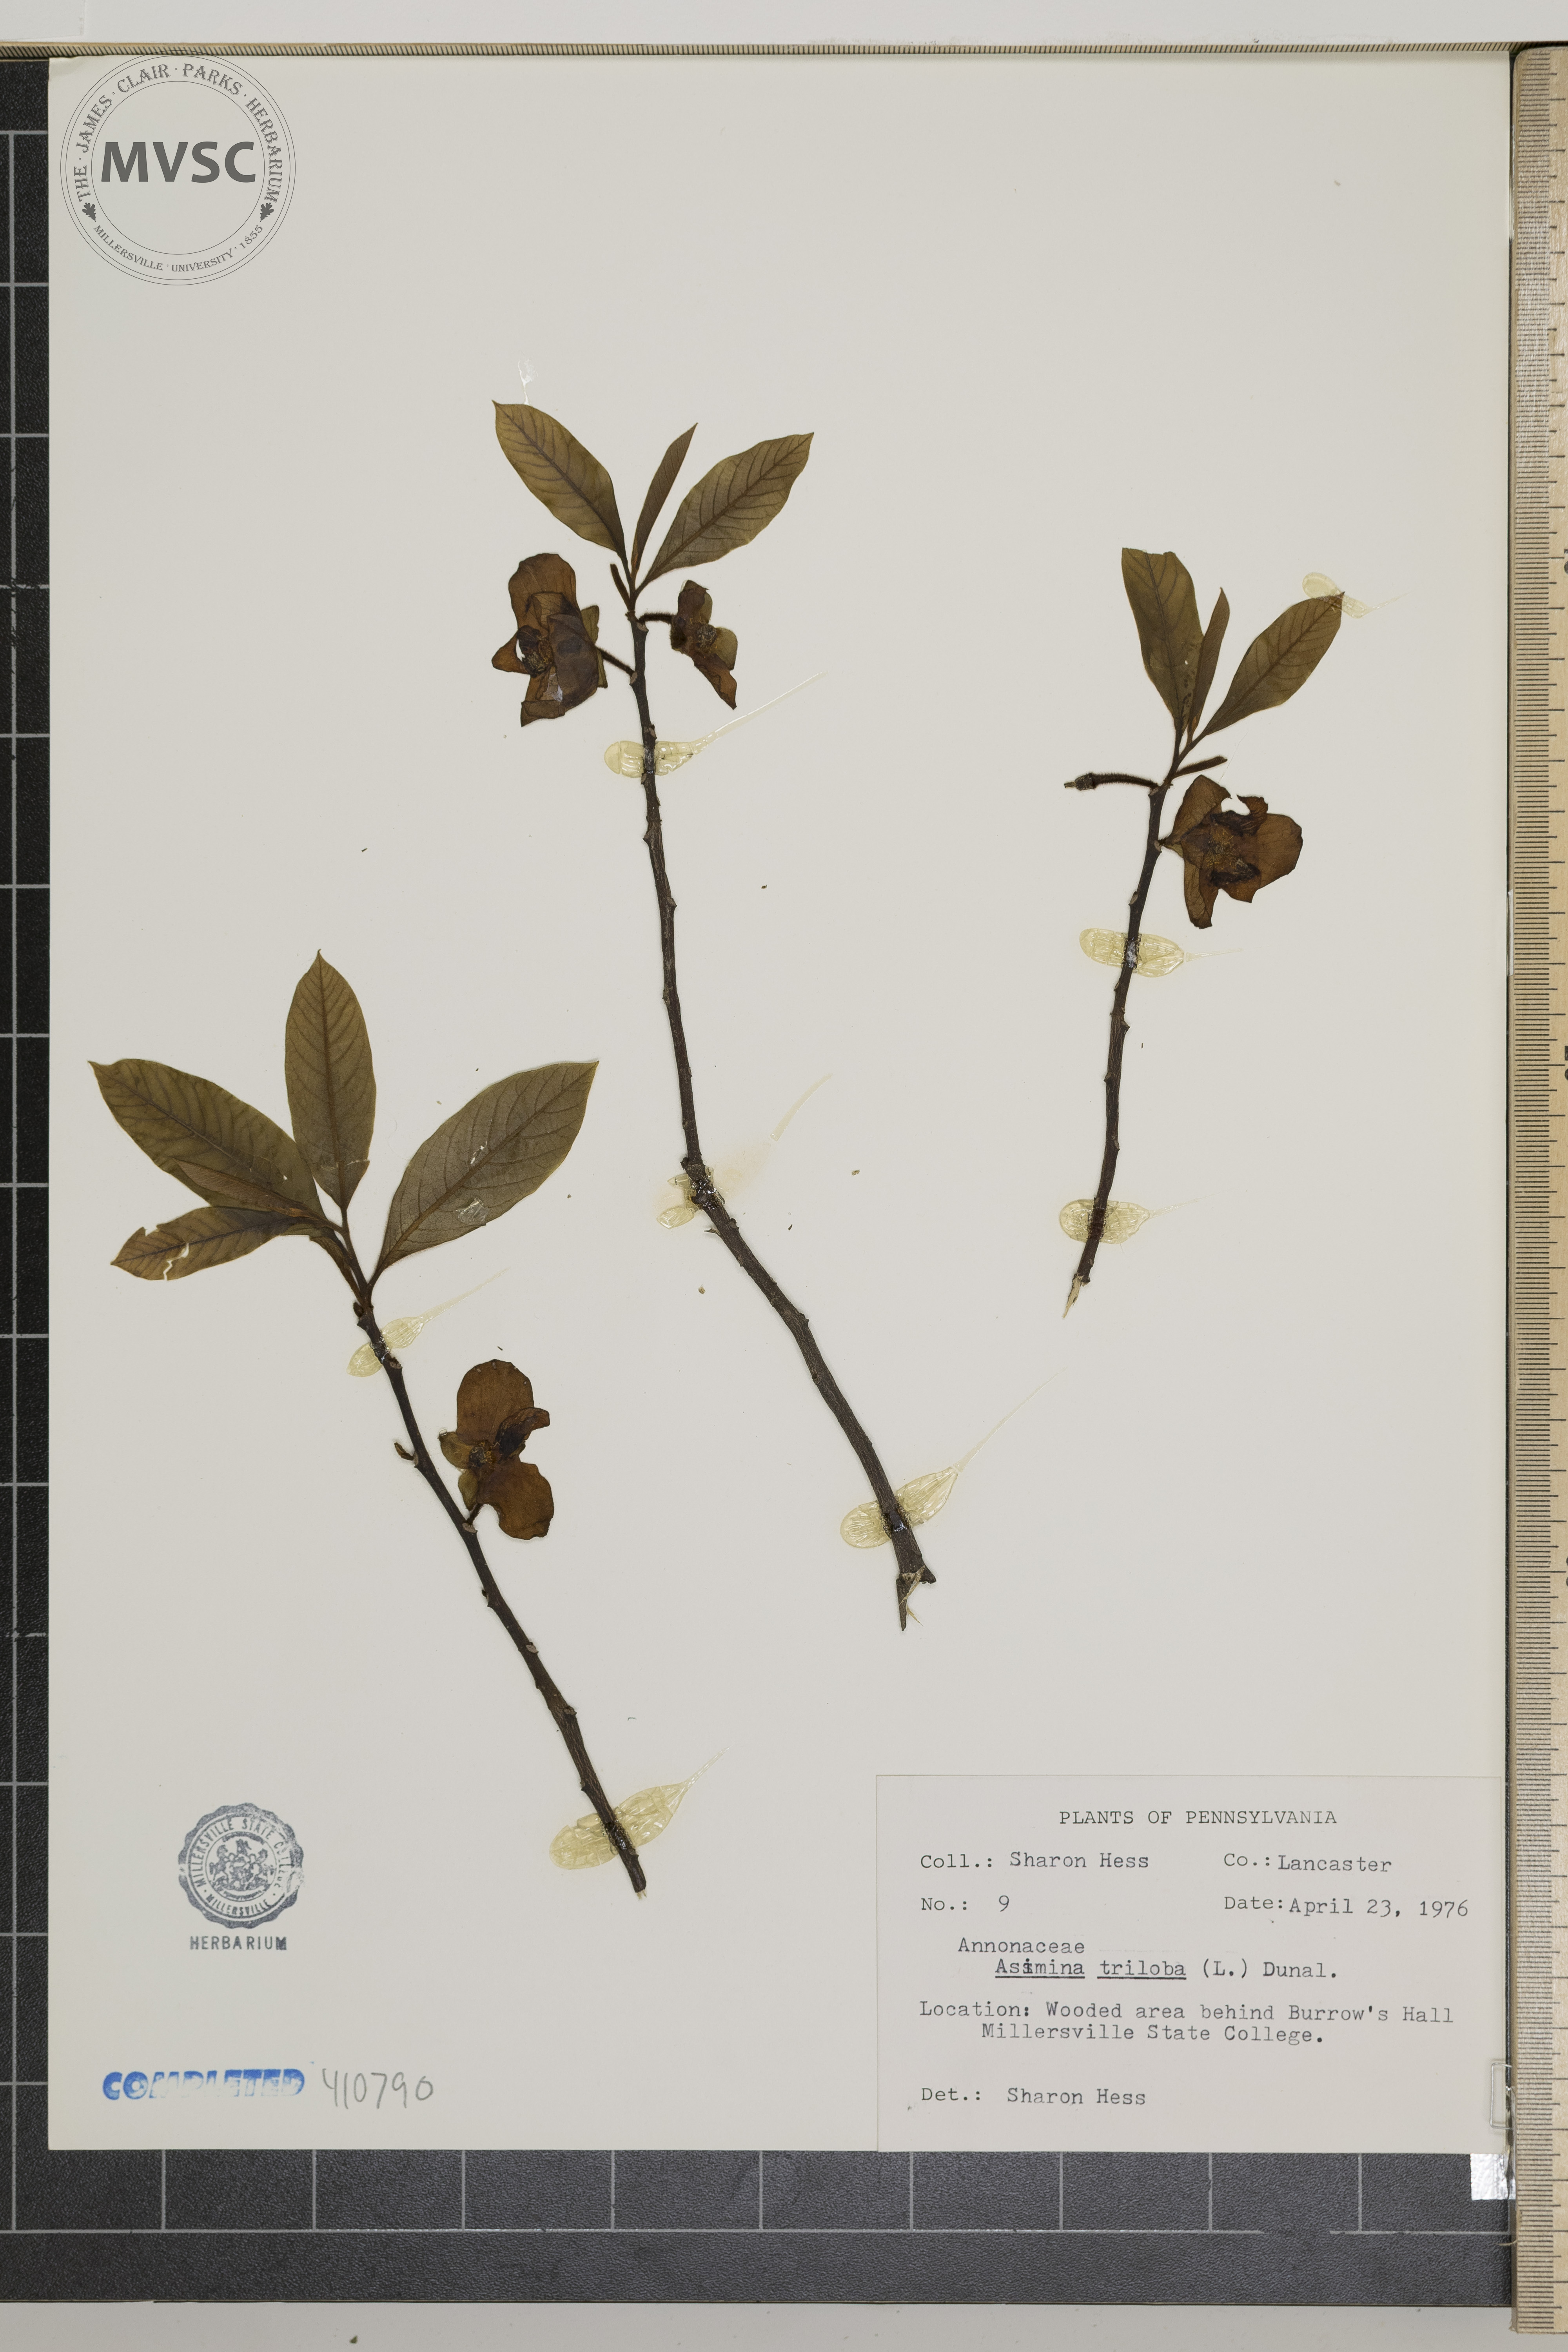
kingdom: Plantae
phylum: Tracheophyta
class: Magnoliopsida
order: Magnoliales
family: Annonaceae
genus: Asimina
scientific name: Asimina triloba
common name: Dog-banana
